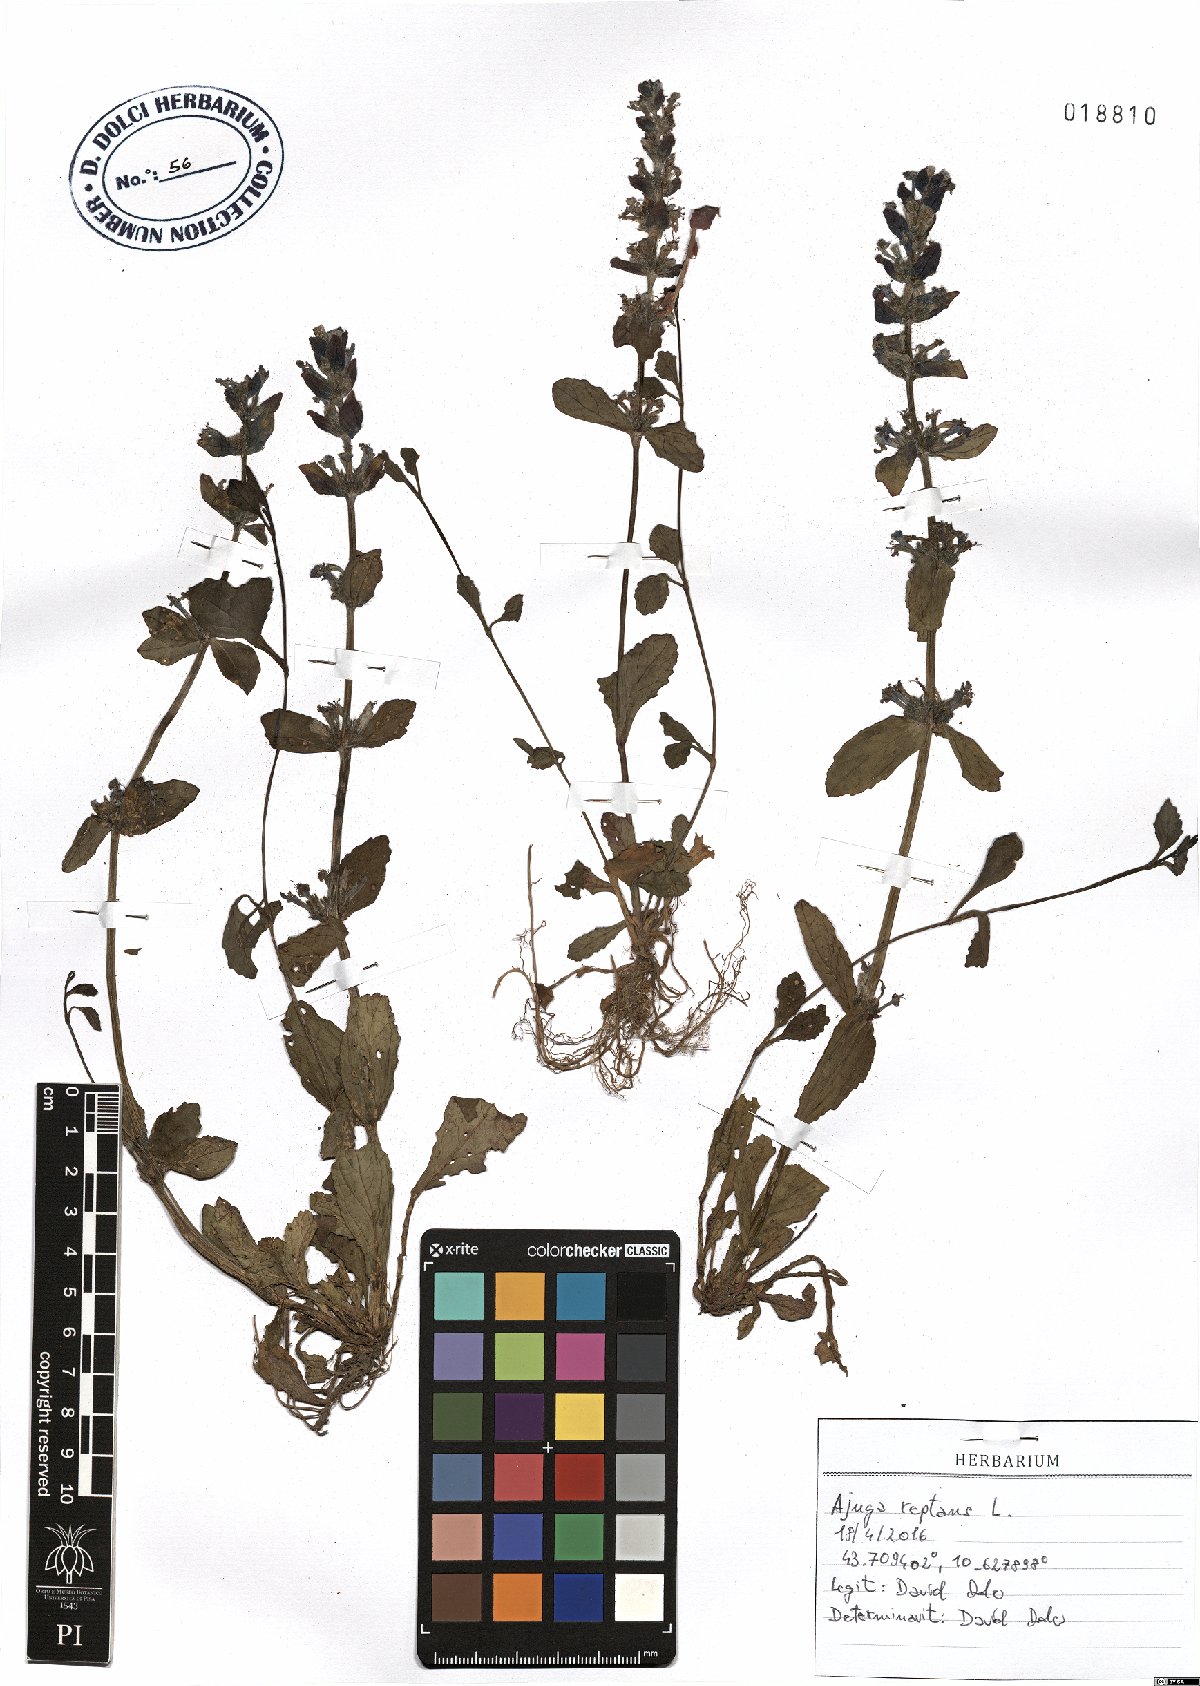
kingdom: Plantae
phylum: Tracheophyta
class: Magnoliopsida
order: Lamiales
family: Lamiaceae
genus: Ajuga
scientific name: Ajuga reptans
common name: Bugle
